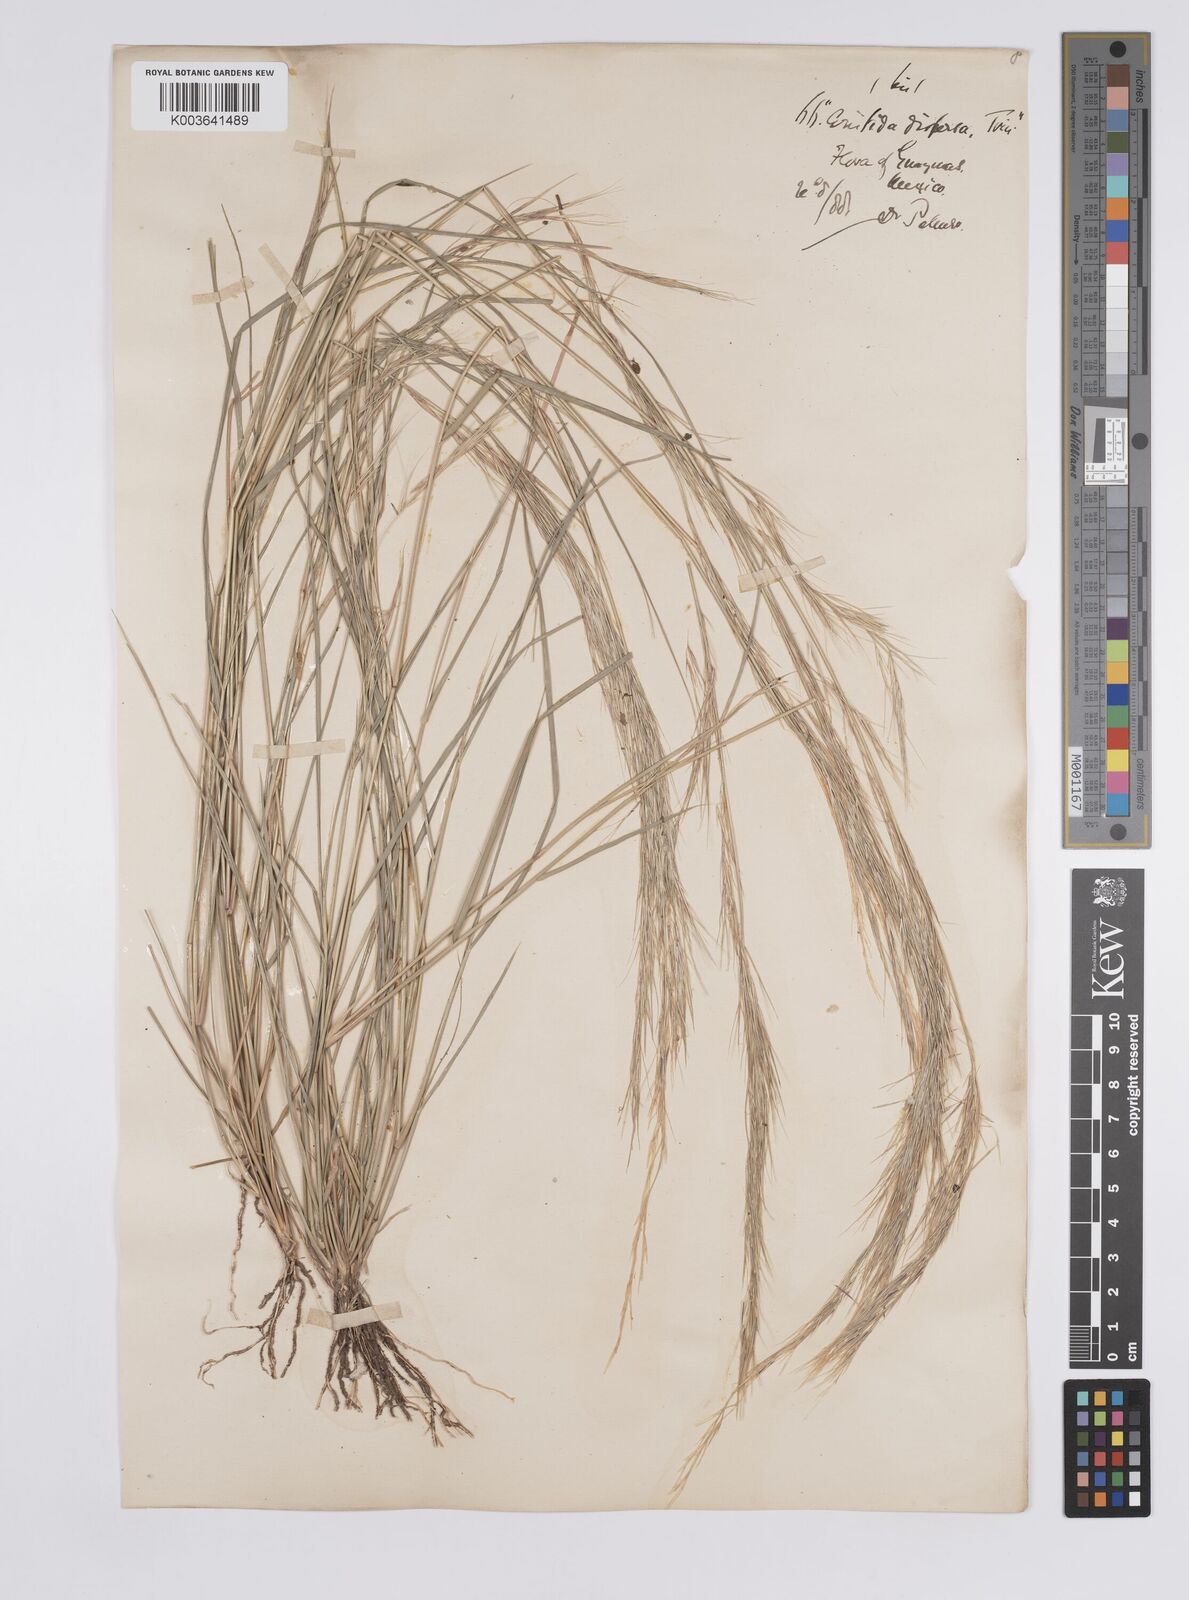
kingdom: Plantae
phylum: Tracheophyta
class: Liliopsida
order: Poales
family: Poaceae
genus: Aristida
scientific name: Aristida adscensionis
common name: Sixweeks threeawn
